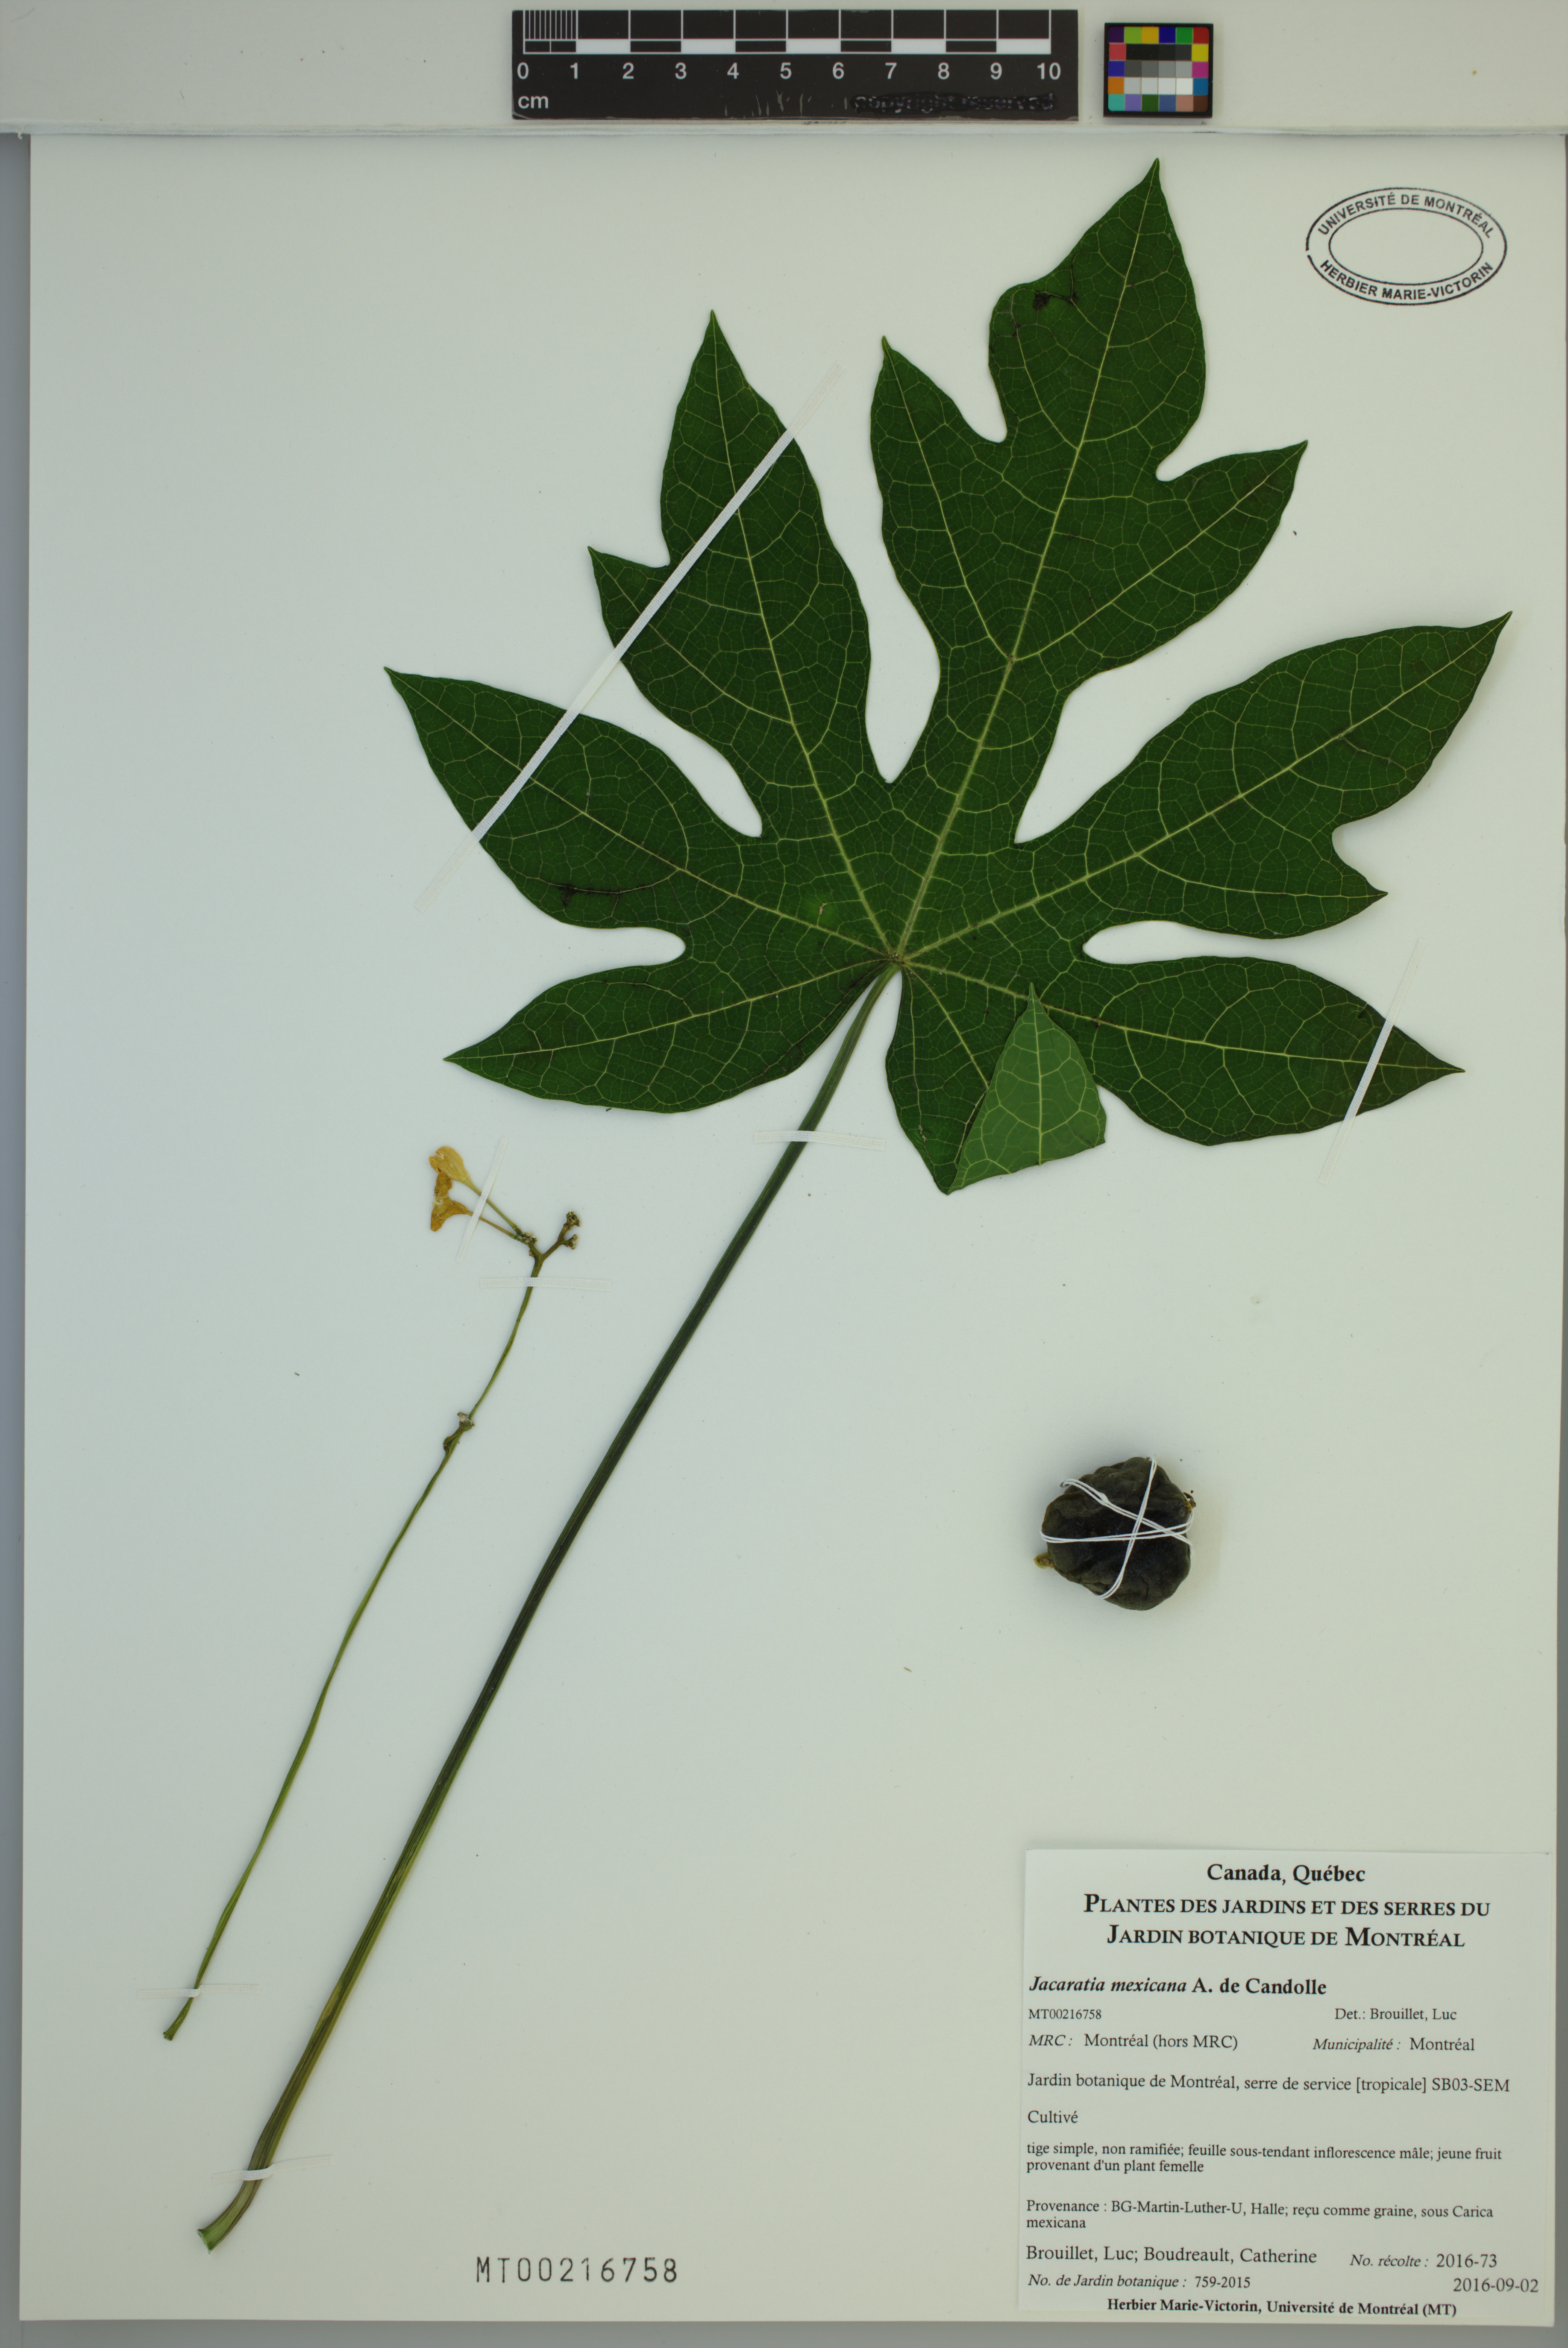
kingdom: Plantae
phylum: Tracheophyta
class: Magnoliopsida
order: Brassicales
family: Caricaceae
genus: Jacaratia
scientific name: Jacaratia mexicana
